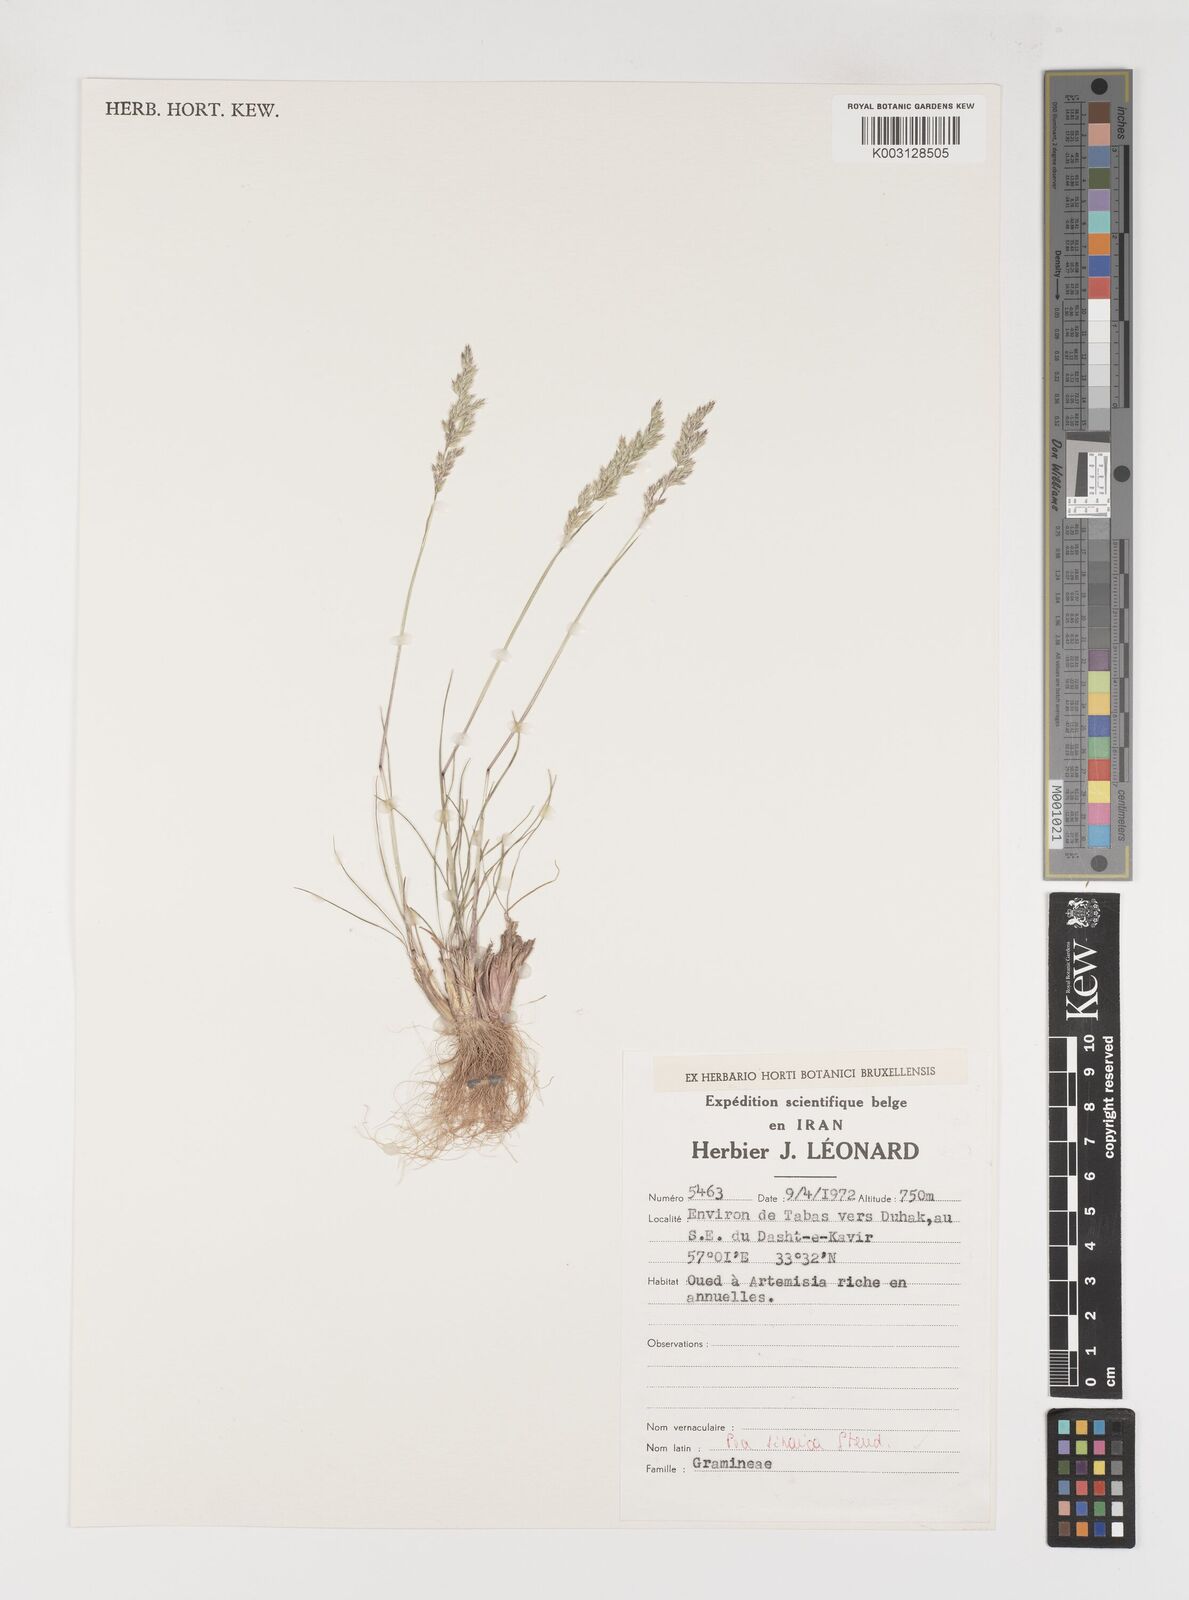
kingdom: Plantae
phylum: Tracheophyta
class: Liliopsida
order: Poales
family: Poaceae
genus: Poa
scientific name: Poa sinaica
